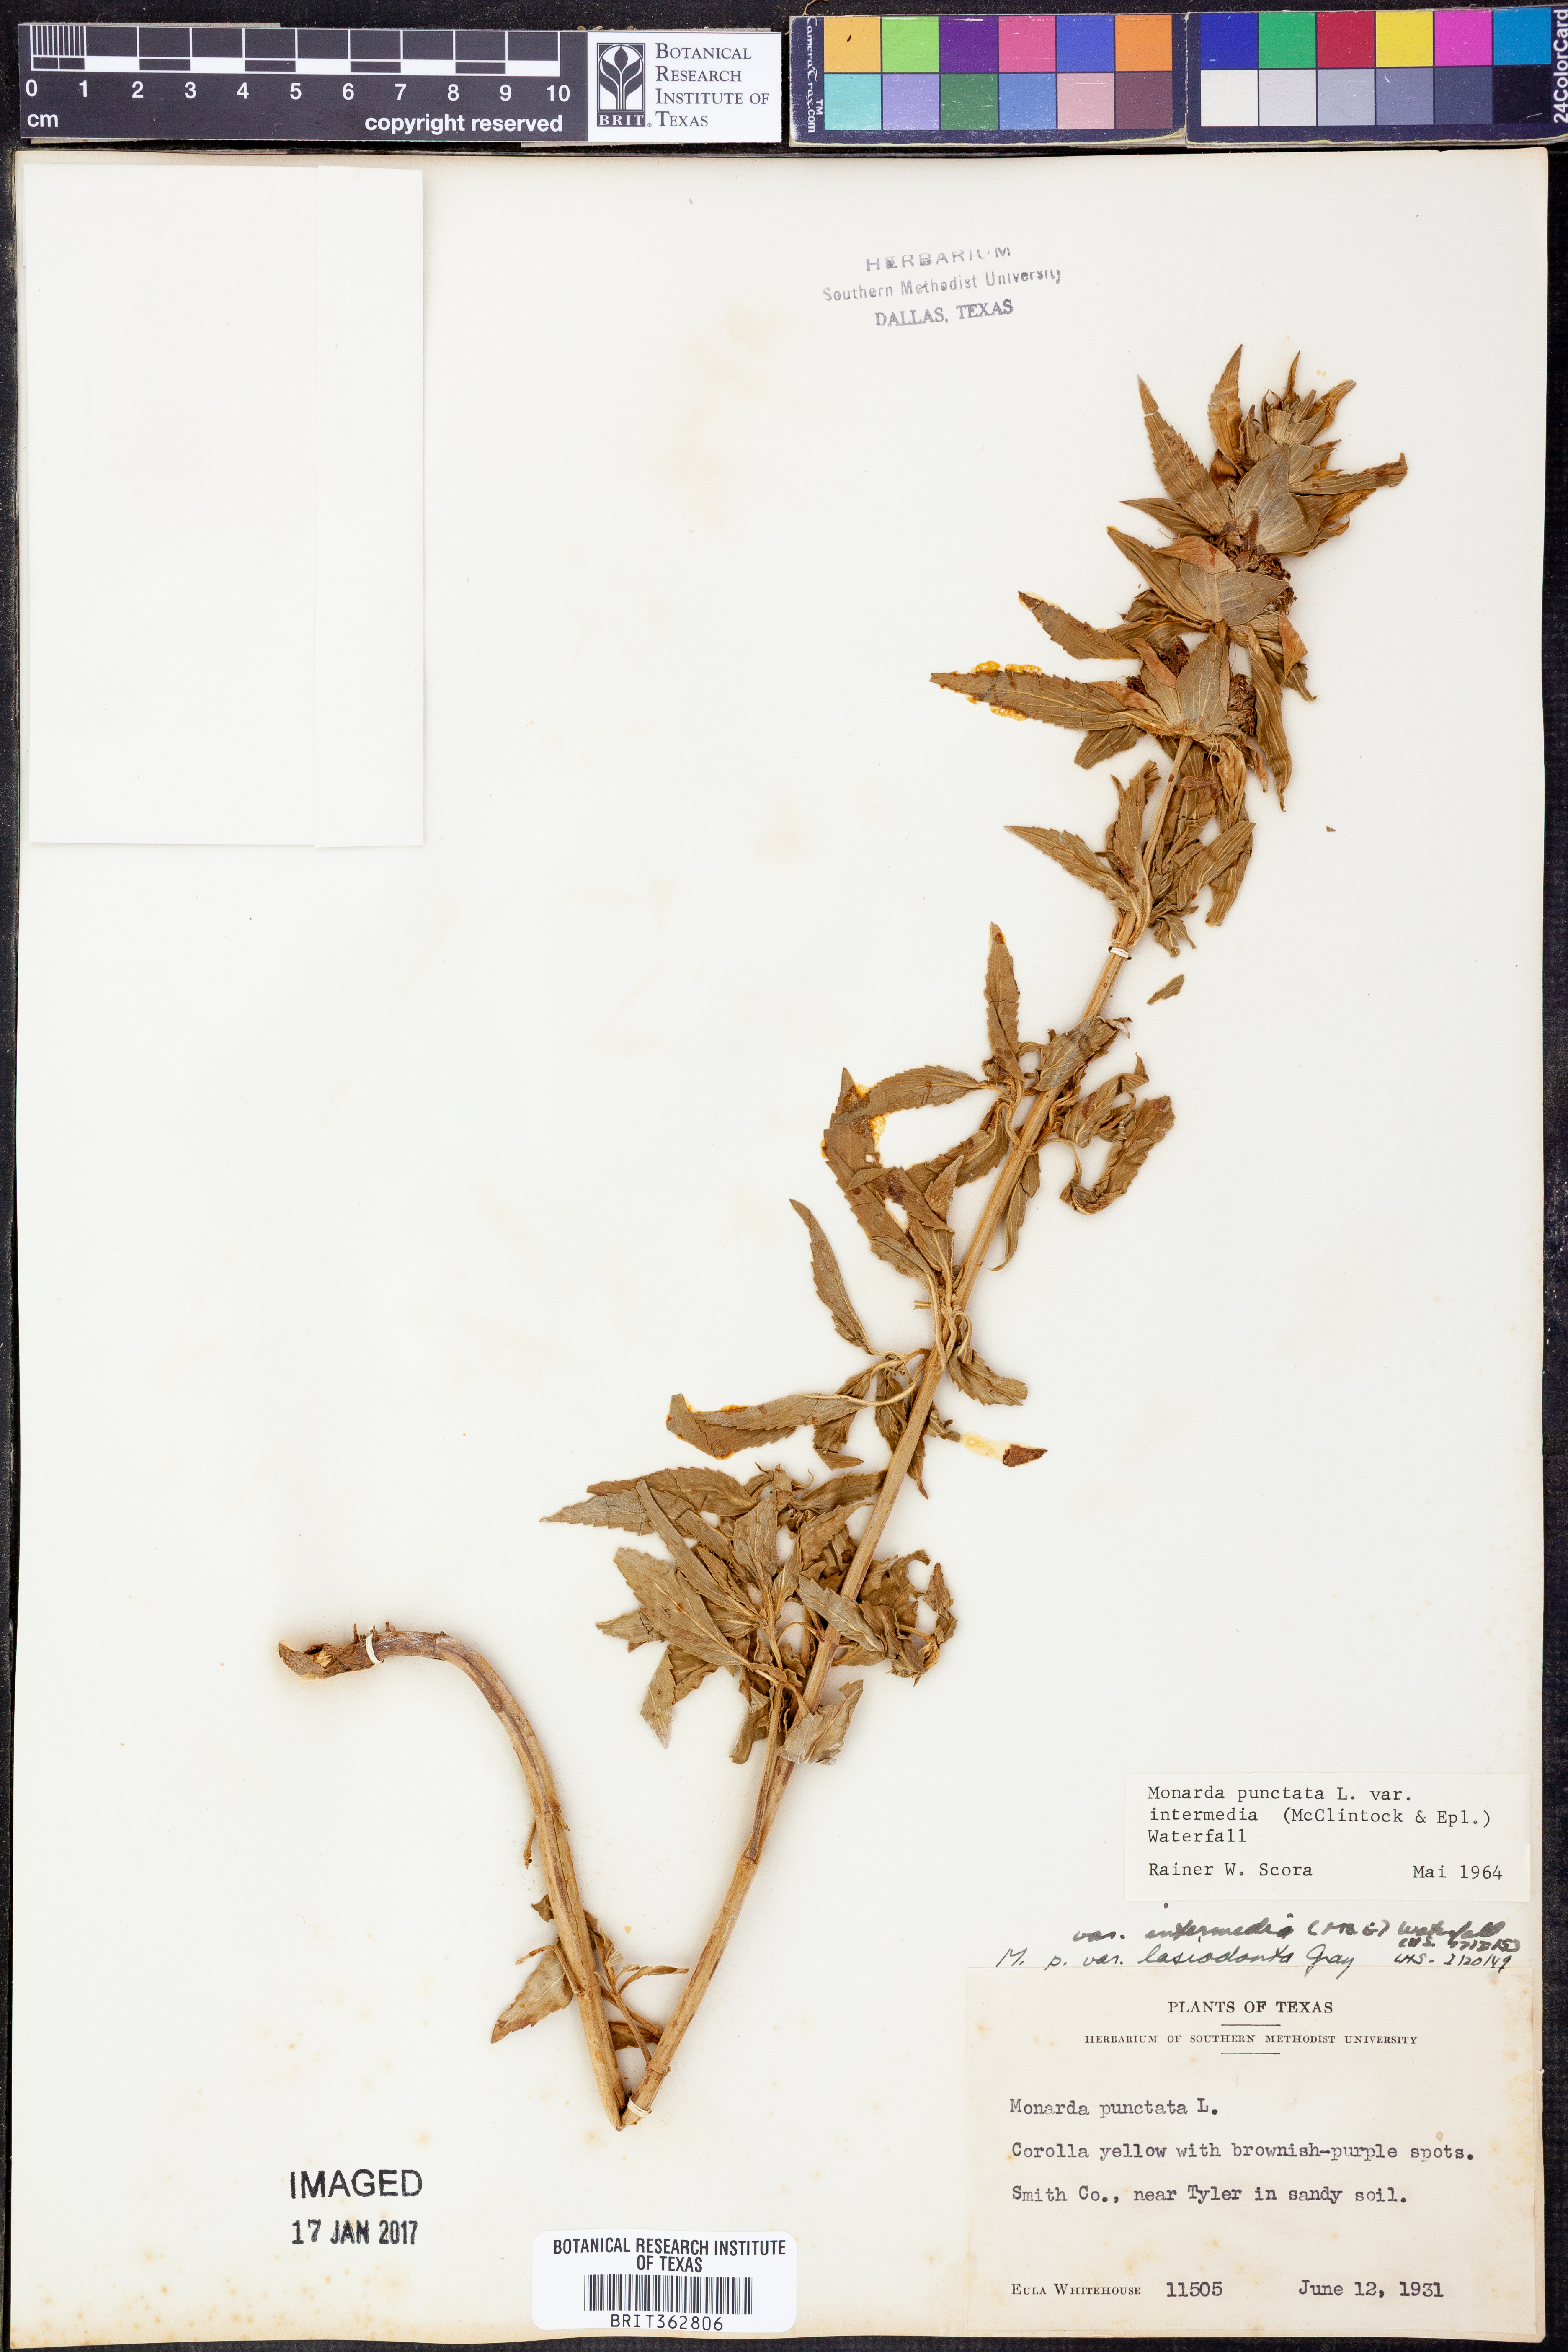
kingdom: Plantae
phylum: Tracheophyta
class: Magnoliopsida
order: Lamiales
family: Lamiaceae
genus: Monarda
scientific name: Monarda punctata
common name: Dotted monarda
